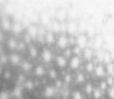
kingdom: Animalia
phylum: Chordata
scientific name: Chordata
